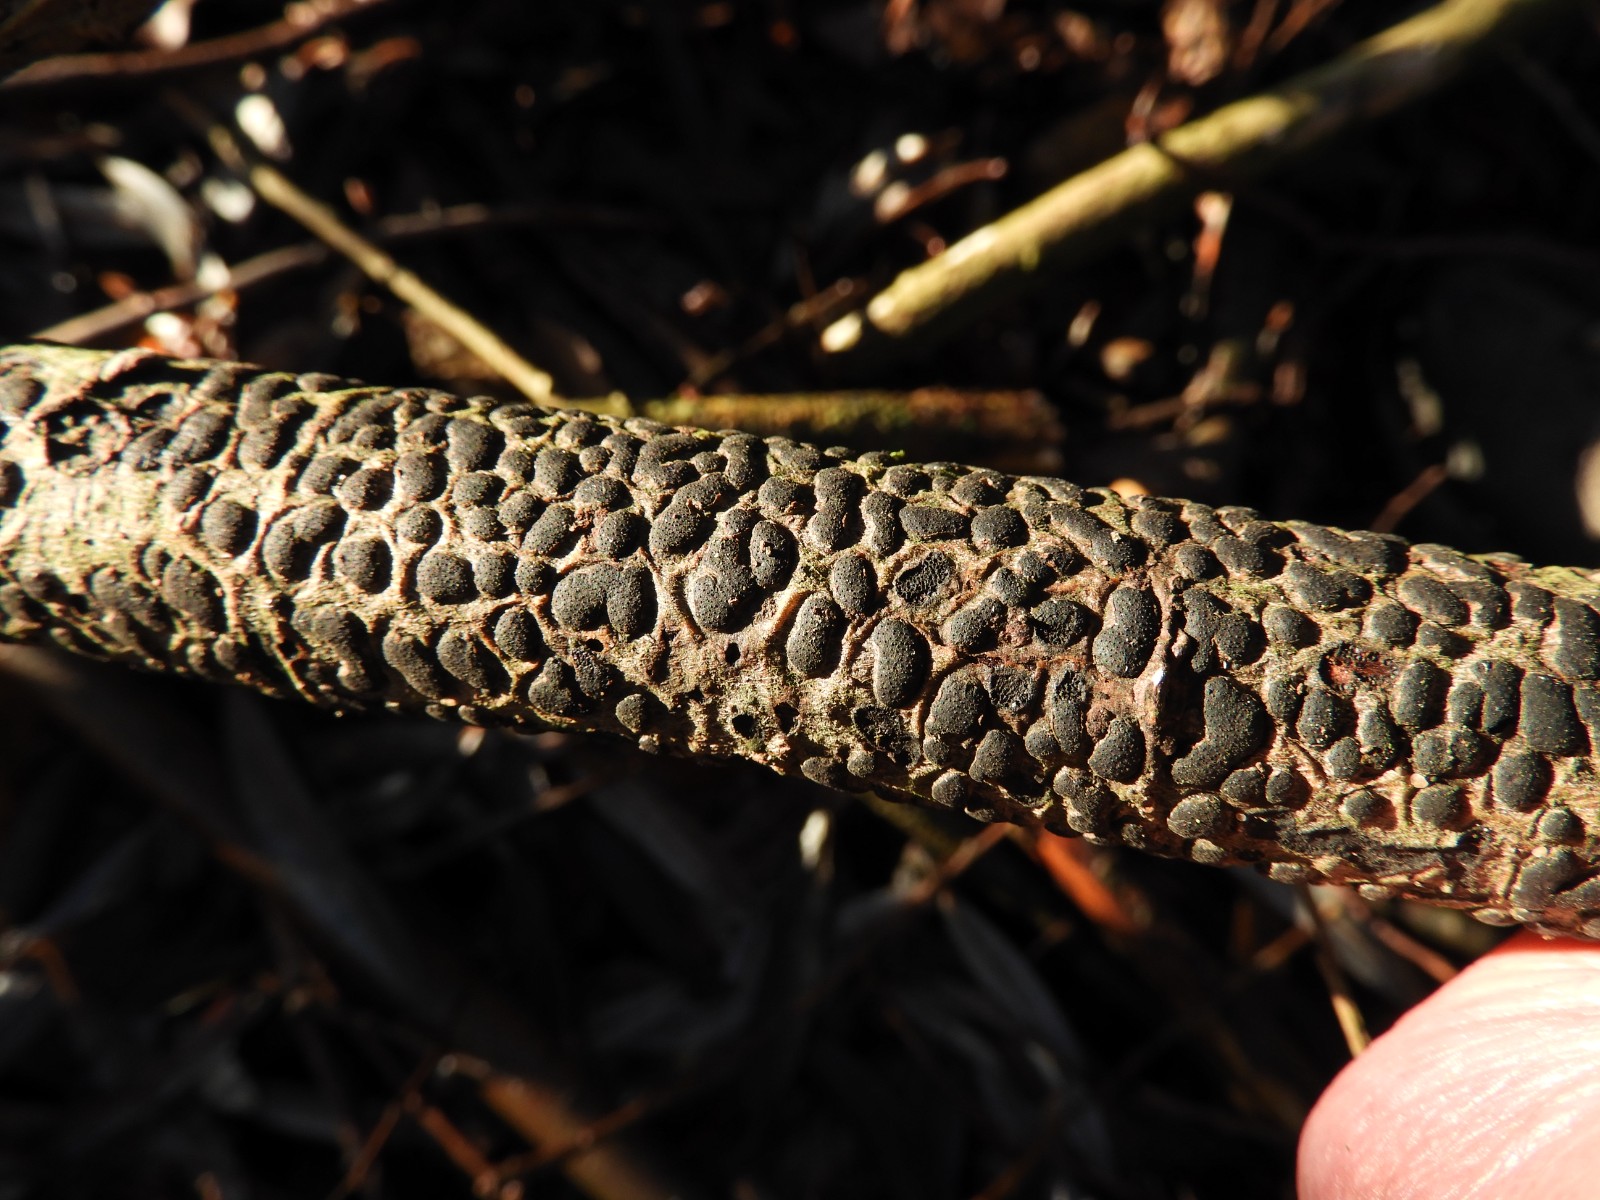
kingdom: Fungi
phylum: Ascomycota
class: Sordariomycetes
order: Xylariales
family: Diatrypaceae
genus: Diatrype
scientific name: Diatrype bullata
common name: pile-kulskorpe
